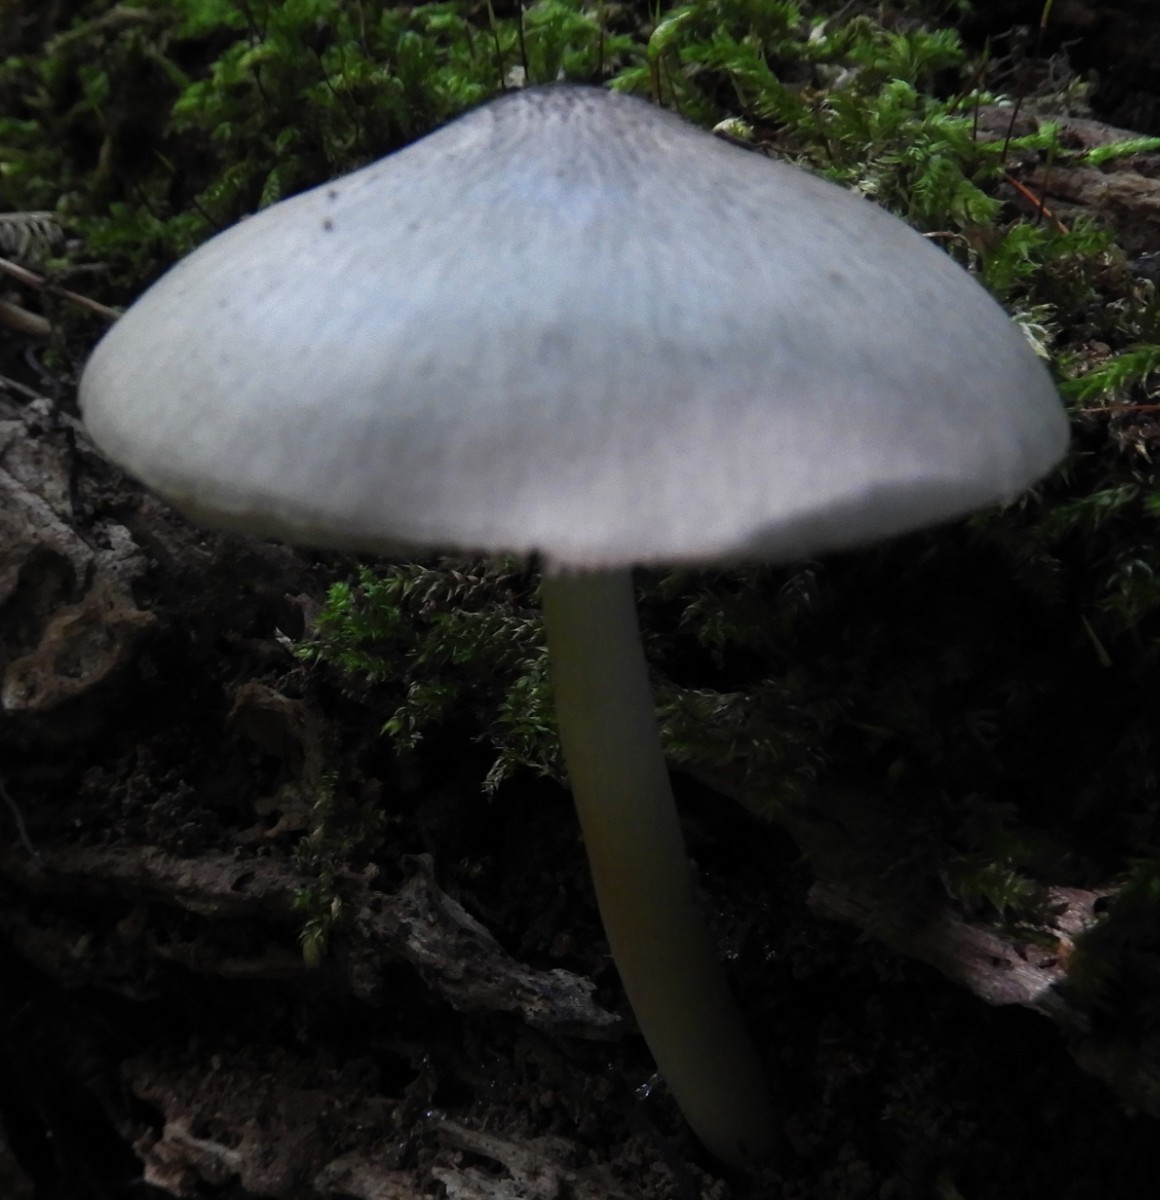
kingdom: Fungi
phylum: Basidiomycota
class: Agaricomycetes
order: Agaricales
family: Pluteaceae
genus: Pluteus
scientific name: Pluteus salicinus
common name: stiv skærmhat
